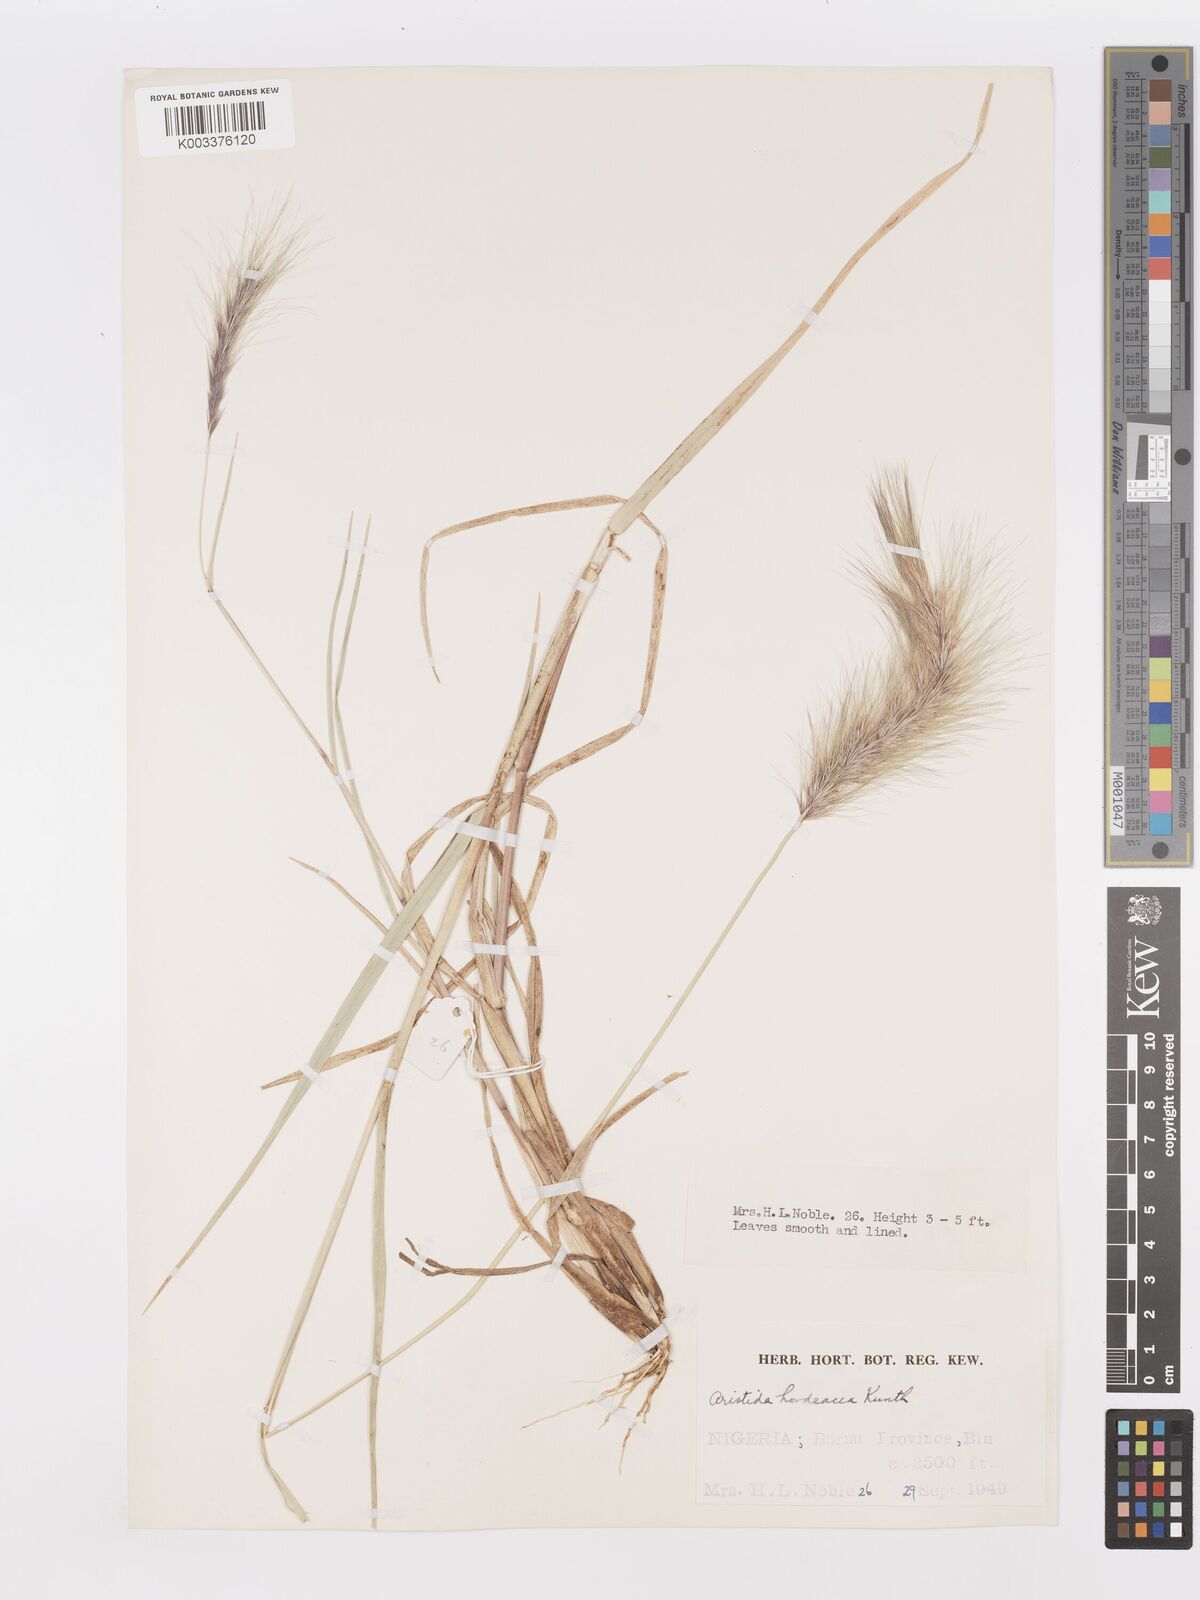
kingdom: Plantae
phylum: Tracheophyta
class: Liliopsida
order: Poales
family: Poaceae
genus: Aristida
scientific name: Aristida hordeacea
